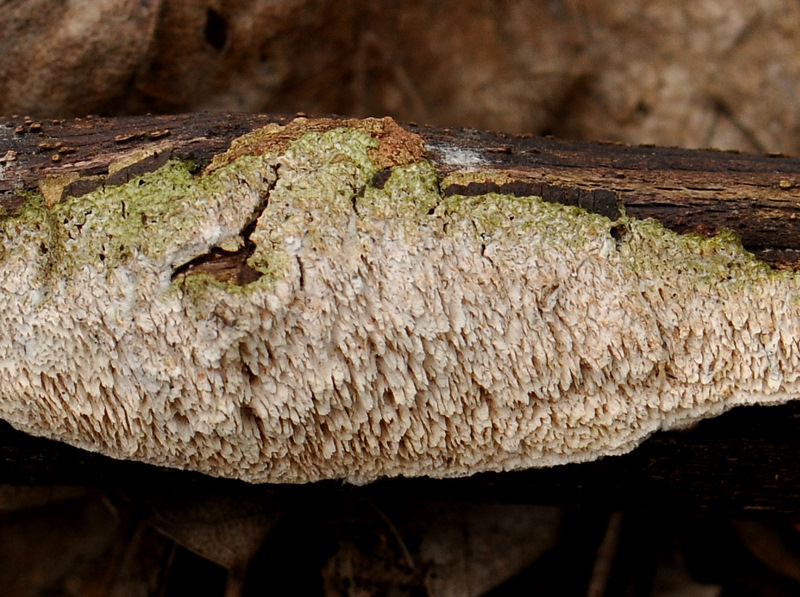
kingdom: Fungi
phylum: Basidiomycota
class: Agaricomycetes
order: Hymenochaetales
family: Schizoporaceae
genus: Schizopora
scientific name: Schizopora paradoxa
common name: hvid tandsvamp
